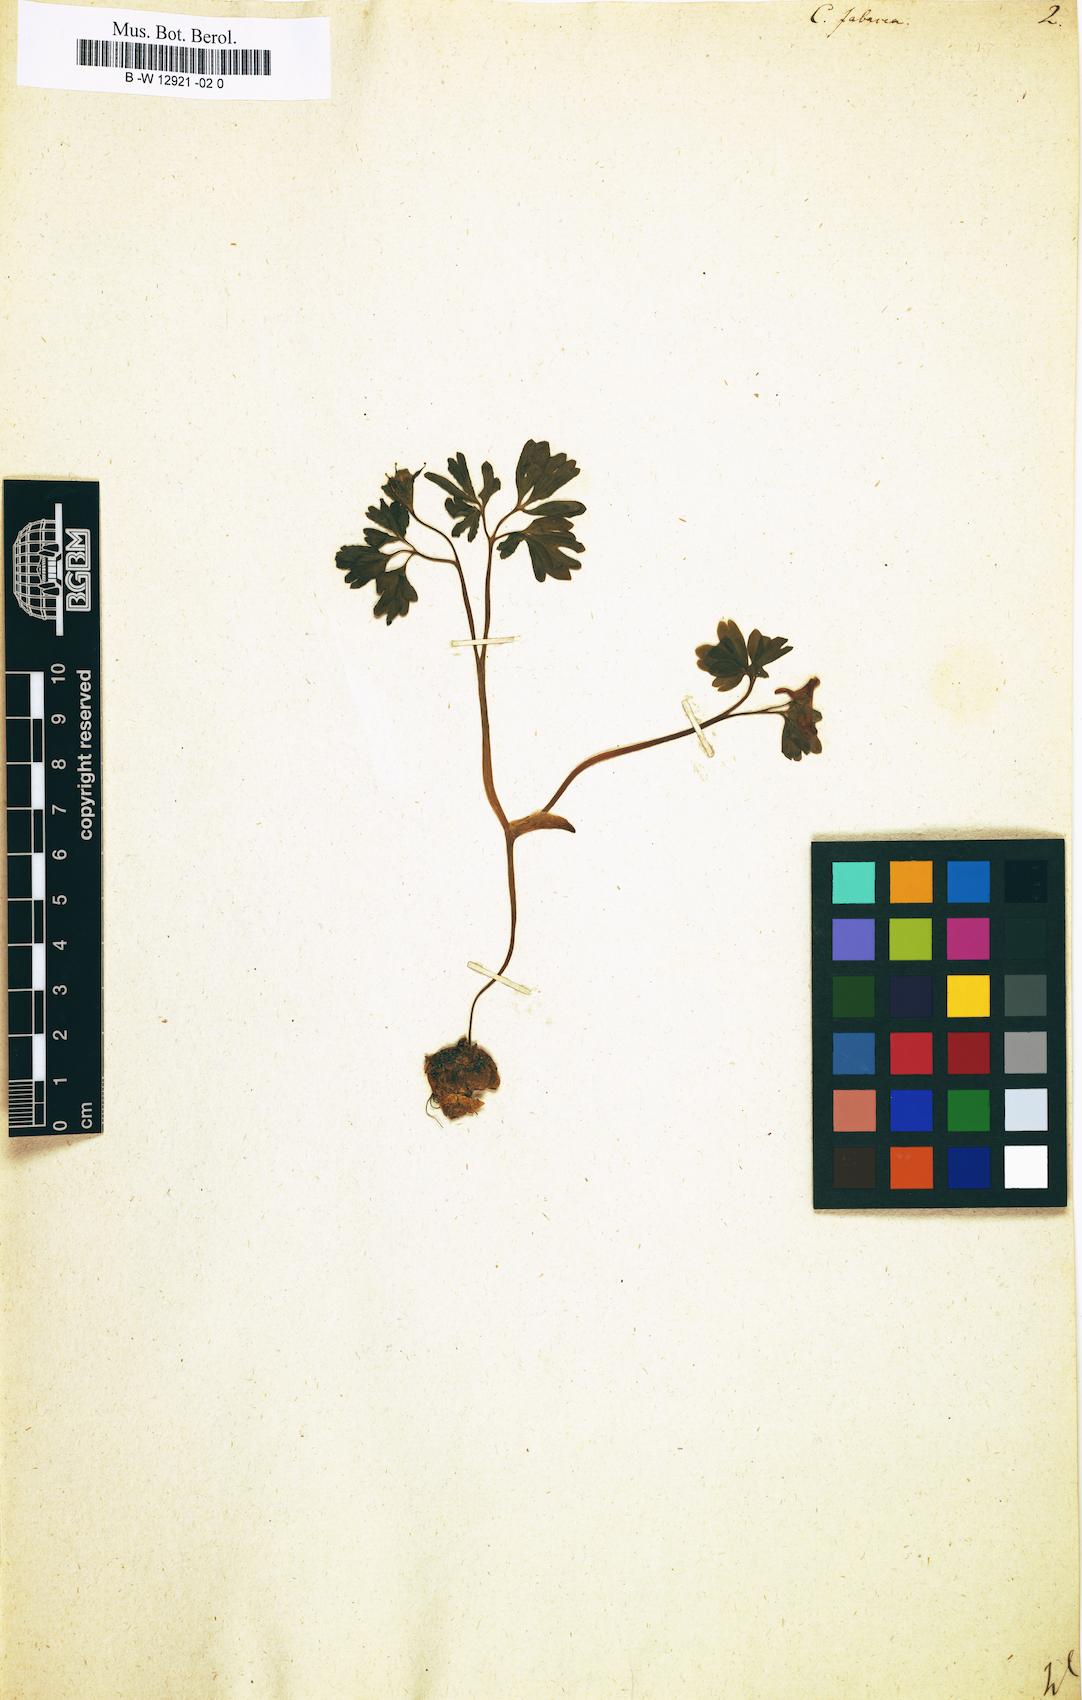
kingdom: Plantae
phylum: Tracheophyta
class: Magnoliopsida
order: Ranunculales
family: Papaveraceae
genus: Corydalis
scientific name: Corydalis caucasica
